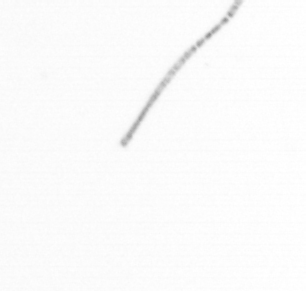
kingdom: Chromista
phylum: Ochrophyta
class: Bacillariophyceae
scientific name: Bacillariophyceae
